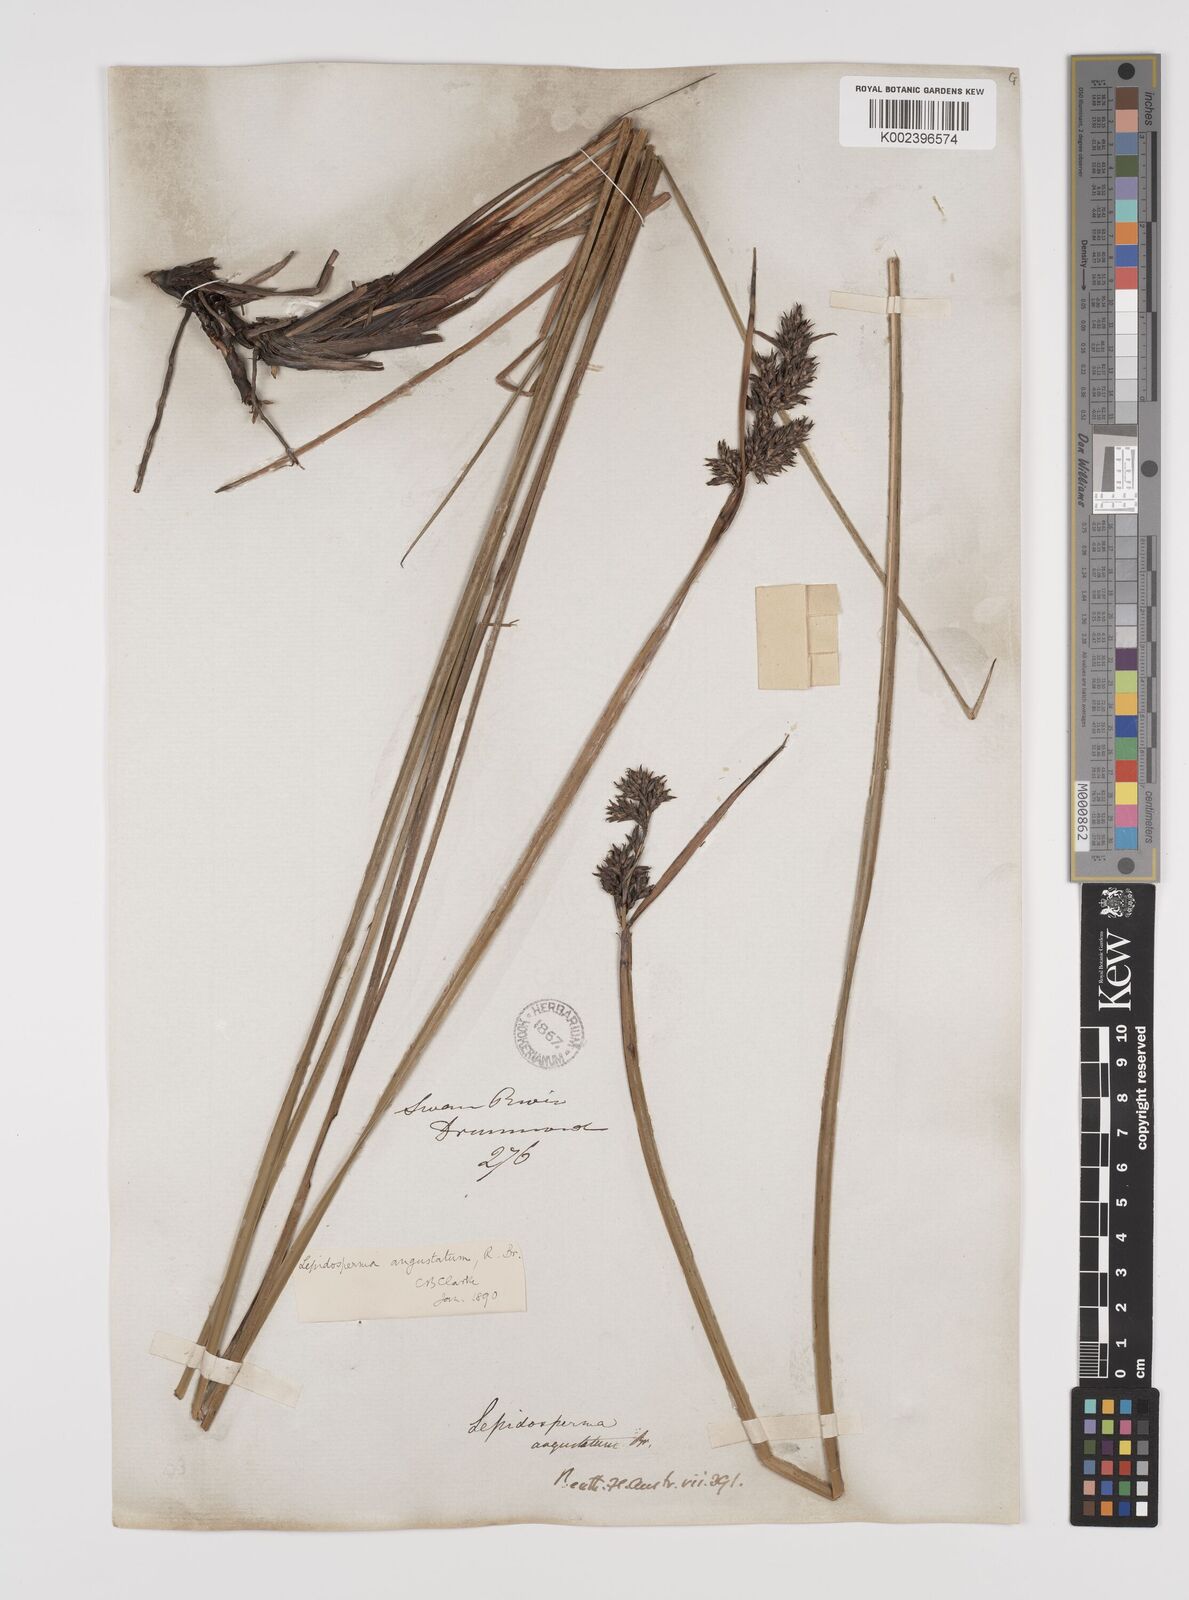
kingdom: Plantae
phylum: Tracheophyta
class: Liliopsida
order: Poales
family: Cyperaceae
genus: Lepidosperma
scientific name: Lepidosperma angustatum
